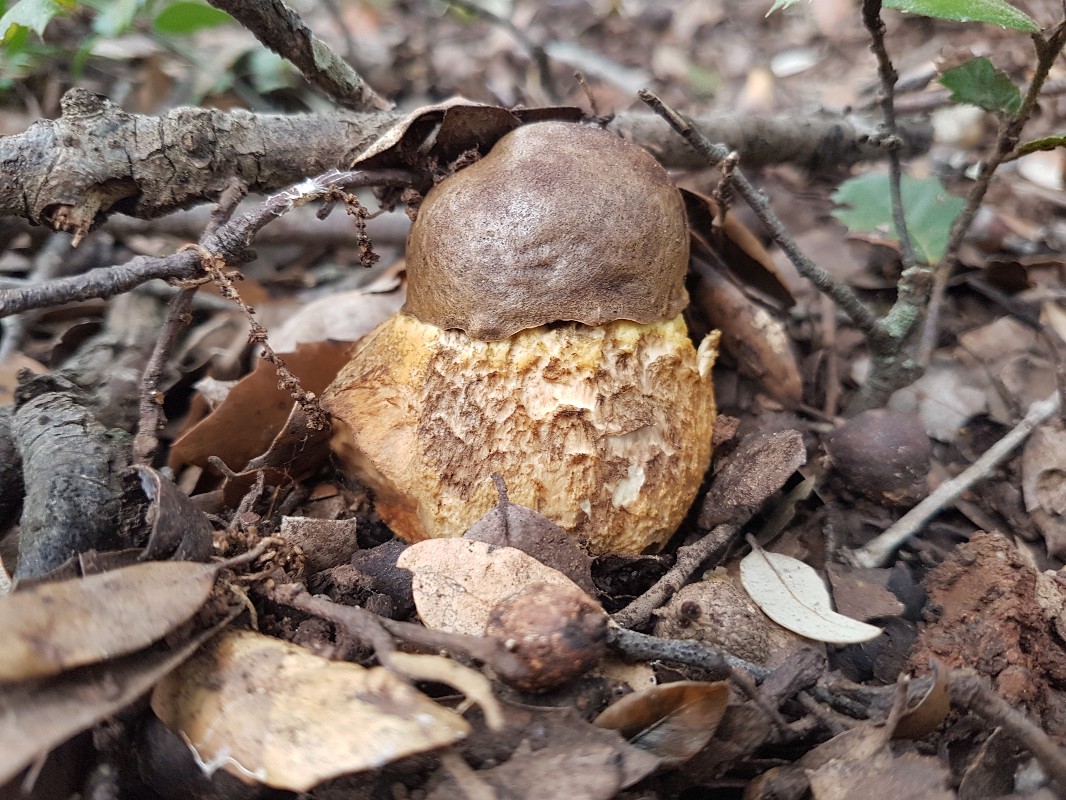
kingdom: Fungi
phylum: Basidiomycota
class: Agaricomycetes
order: Boletales
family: Boletaceae
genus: Leccinellum
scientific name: Leccinellum crocipodium
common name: gul skælrørhat
